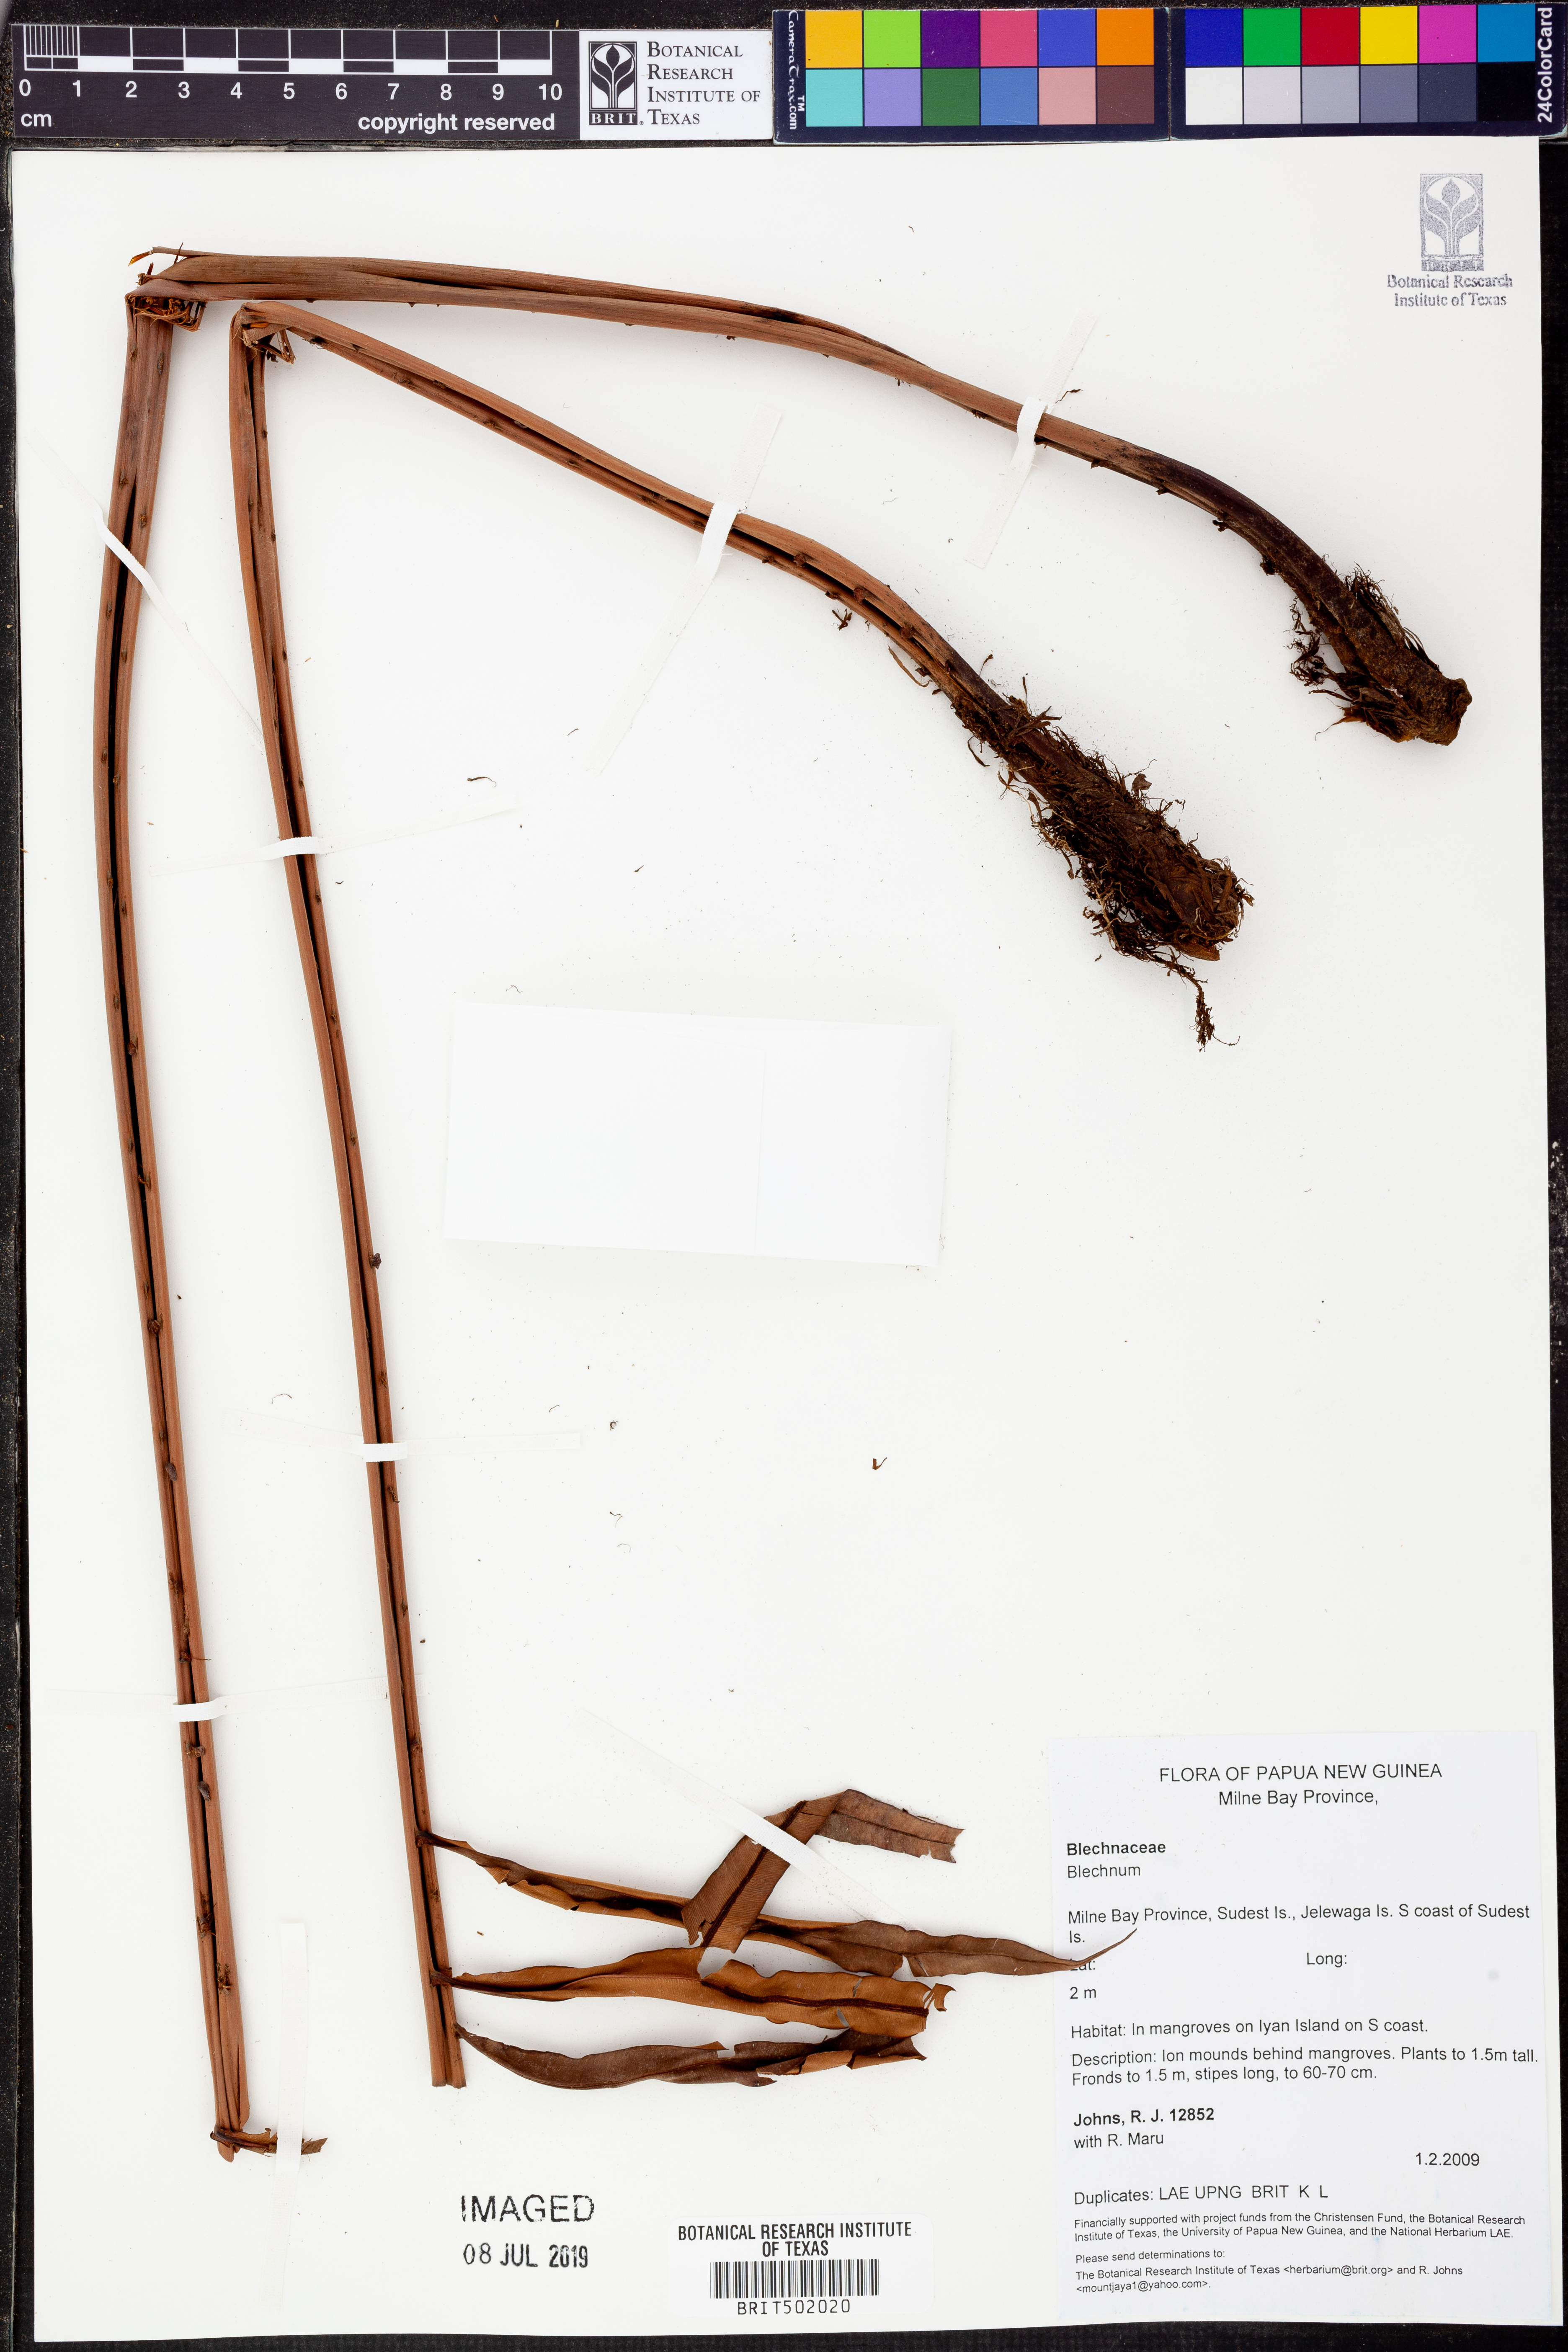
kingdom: Plantae
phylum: Tracheophyta
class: Polypodiopsida
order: Polypodiales
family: Blechnaceae
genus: Blechnum
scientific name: Blechnum
